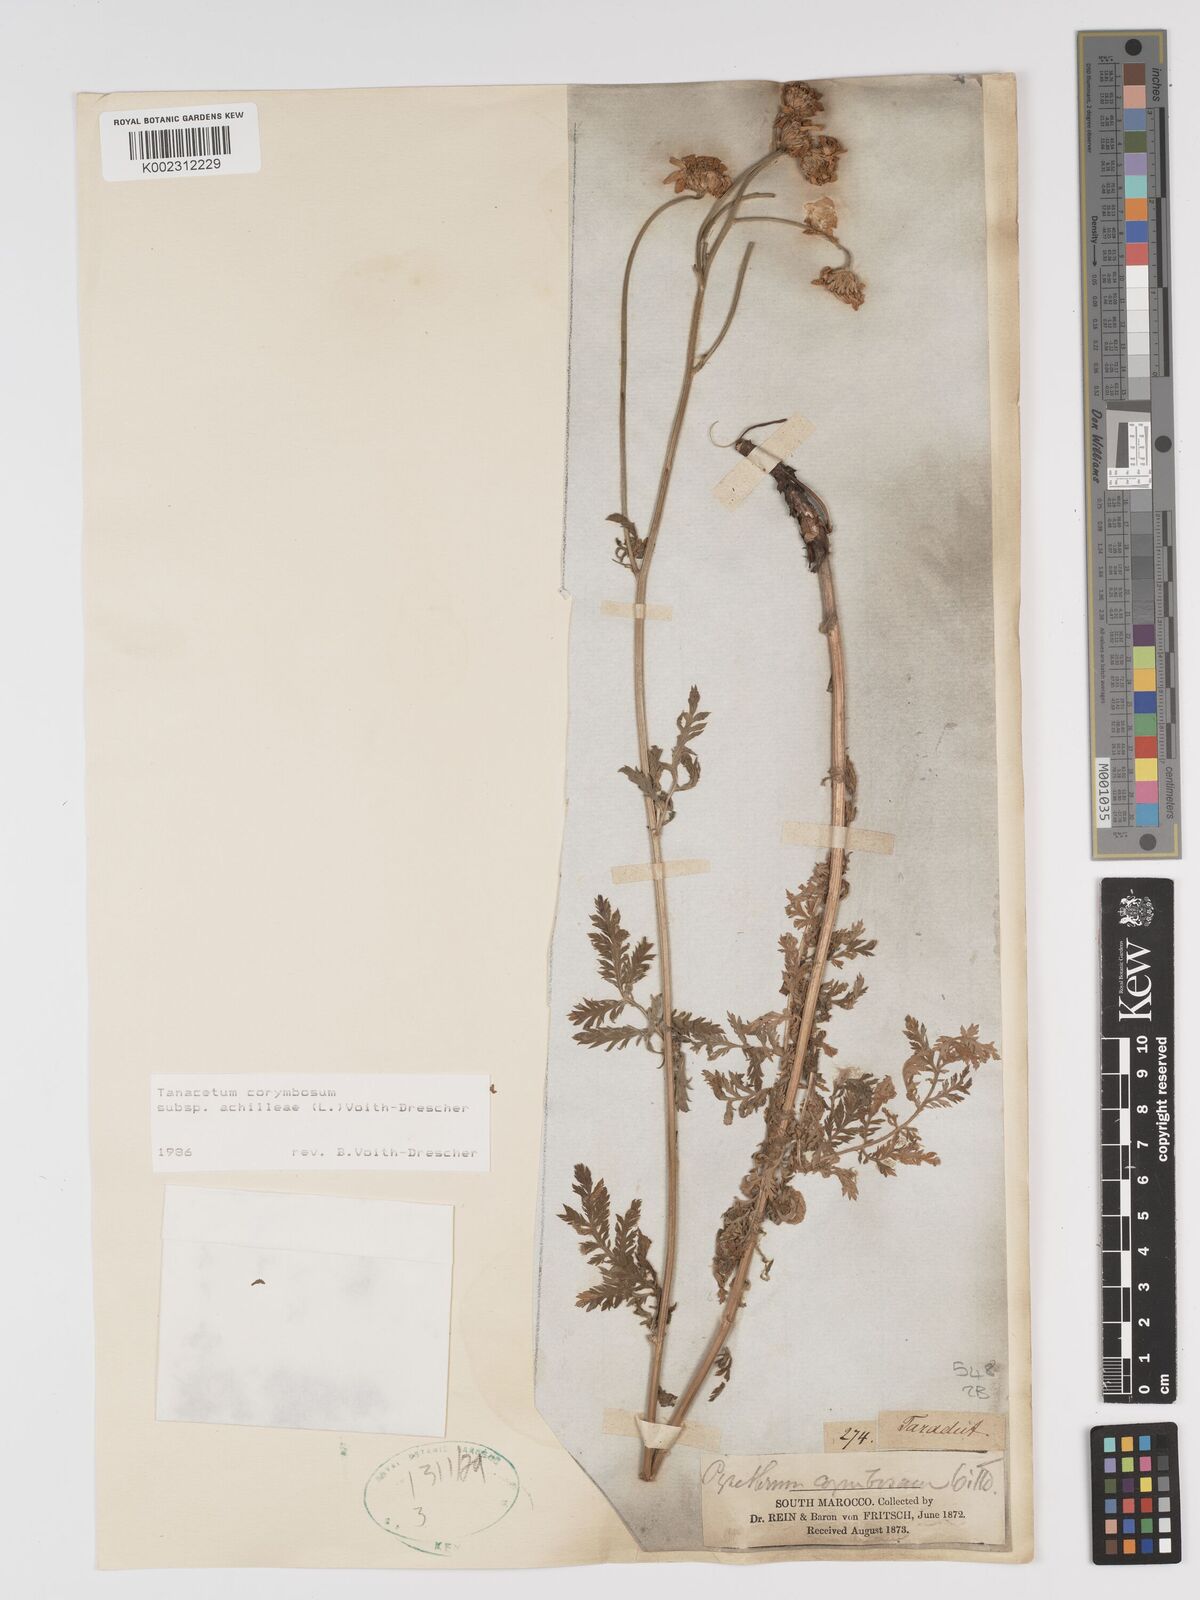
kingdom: Plantae
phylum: Tracheophyta
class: Magnoliopsida
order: Asterales
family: Asteraceae
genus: Tanacetum
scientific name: Tanacetum corymbosum
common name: Scentless feverfew
